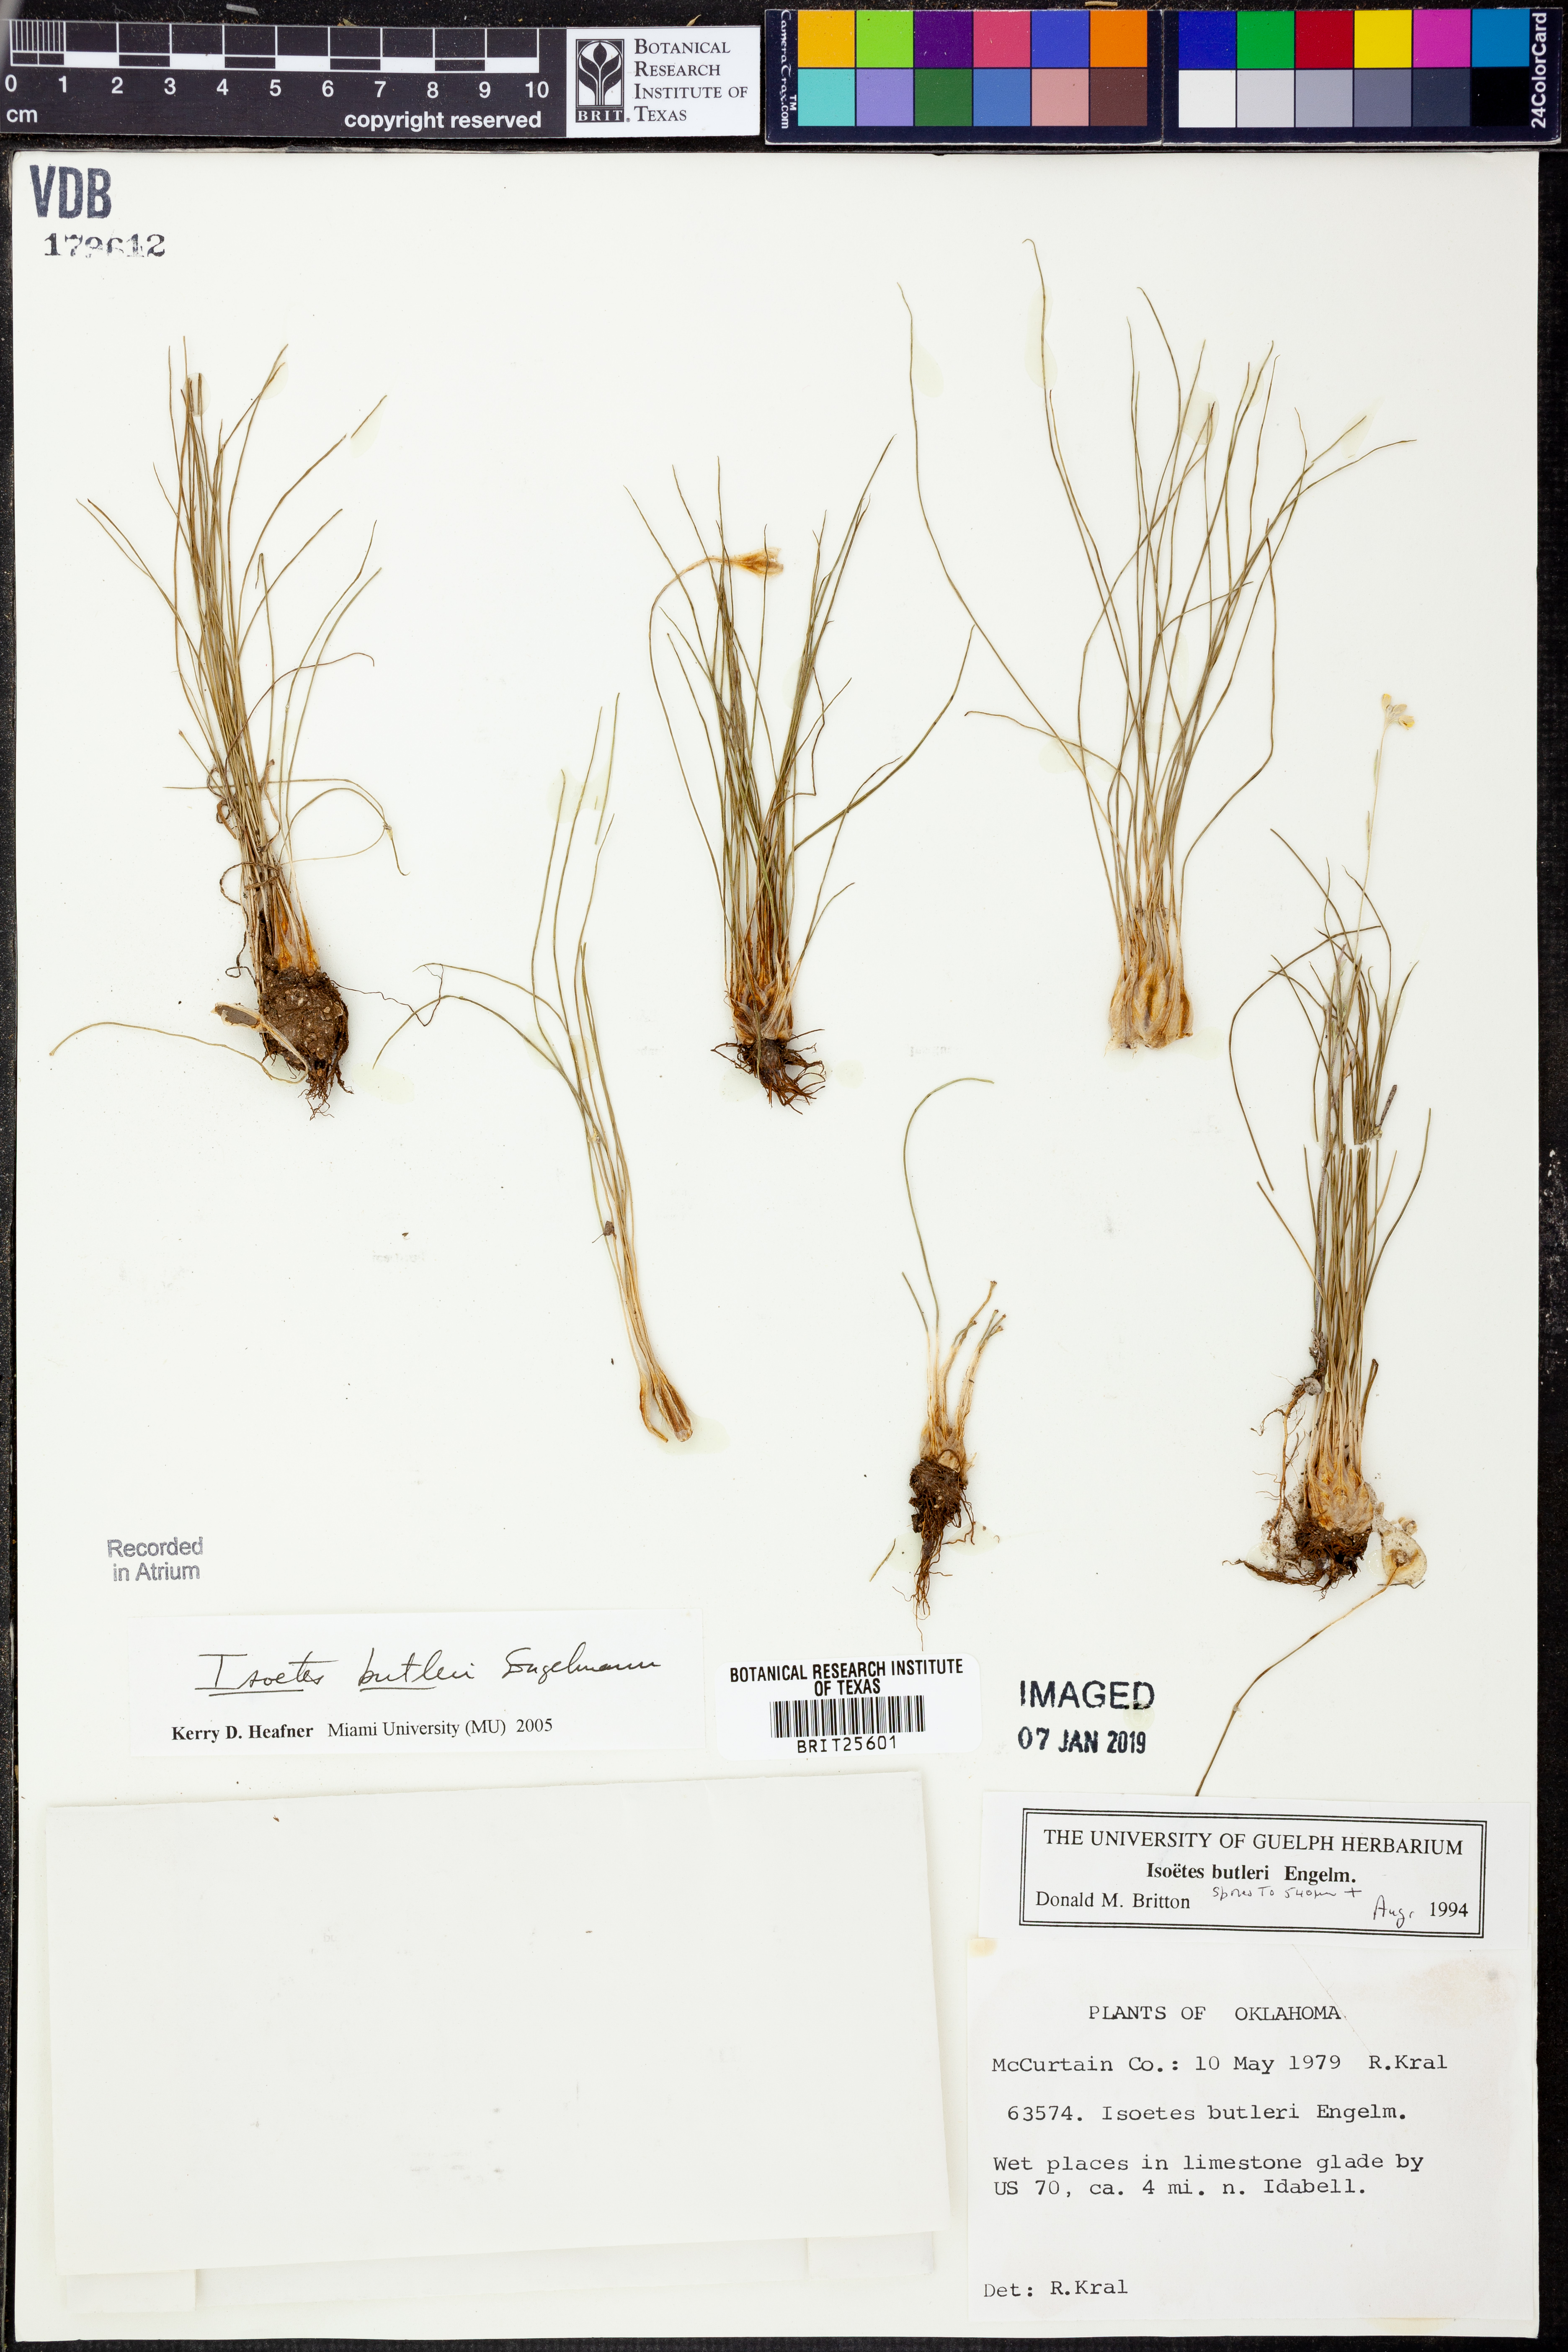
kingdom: Plantae
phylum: Tracheophyta
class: Lycopodiopsida
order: Isoetales
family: Isoetaceae
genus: Isoetes
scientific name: Isoetes butleri
